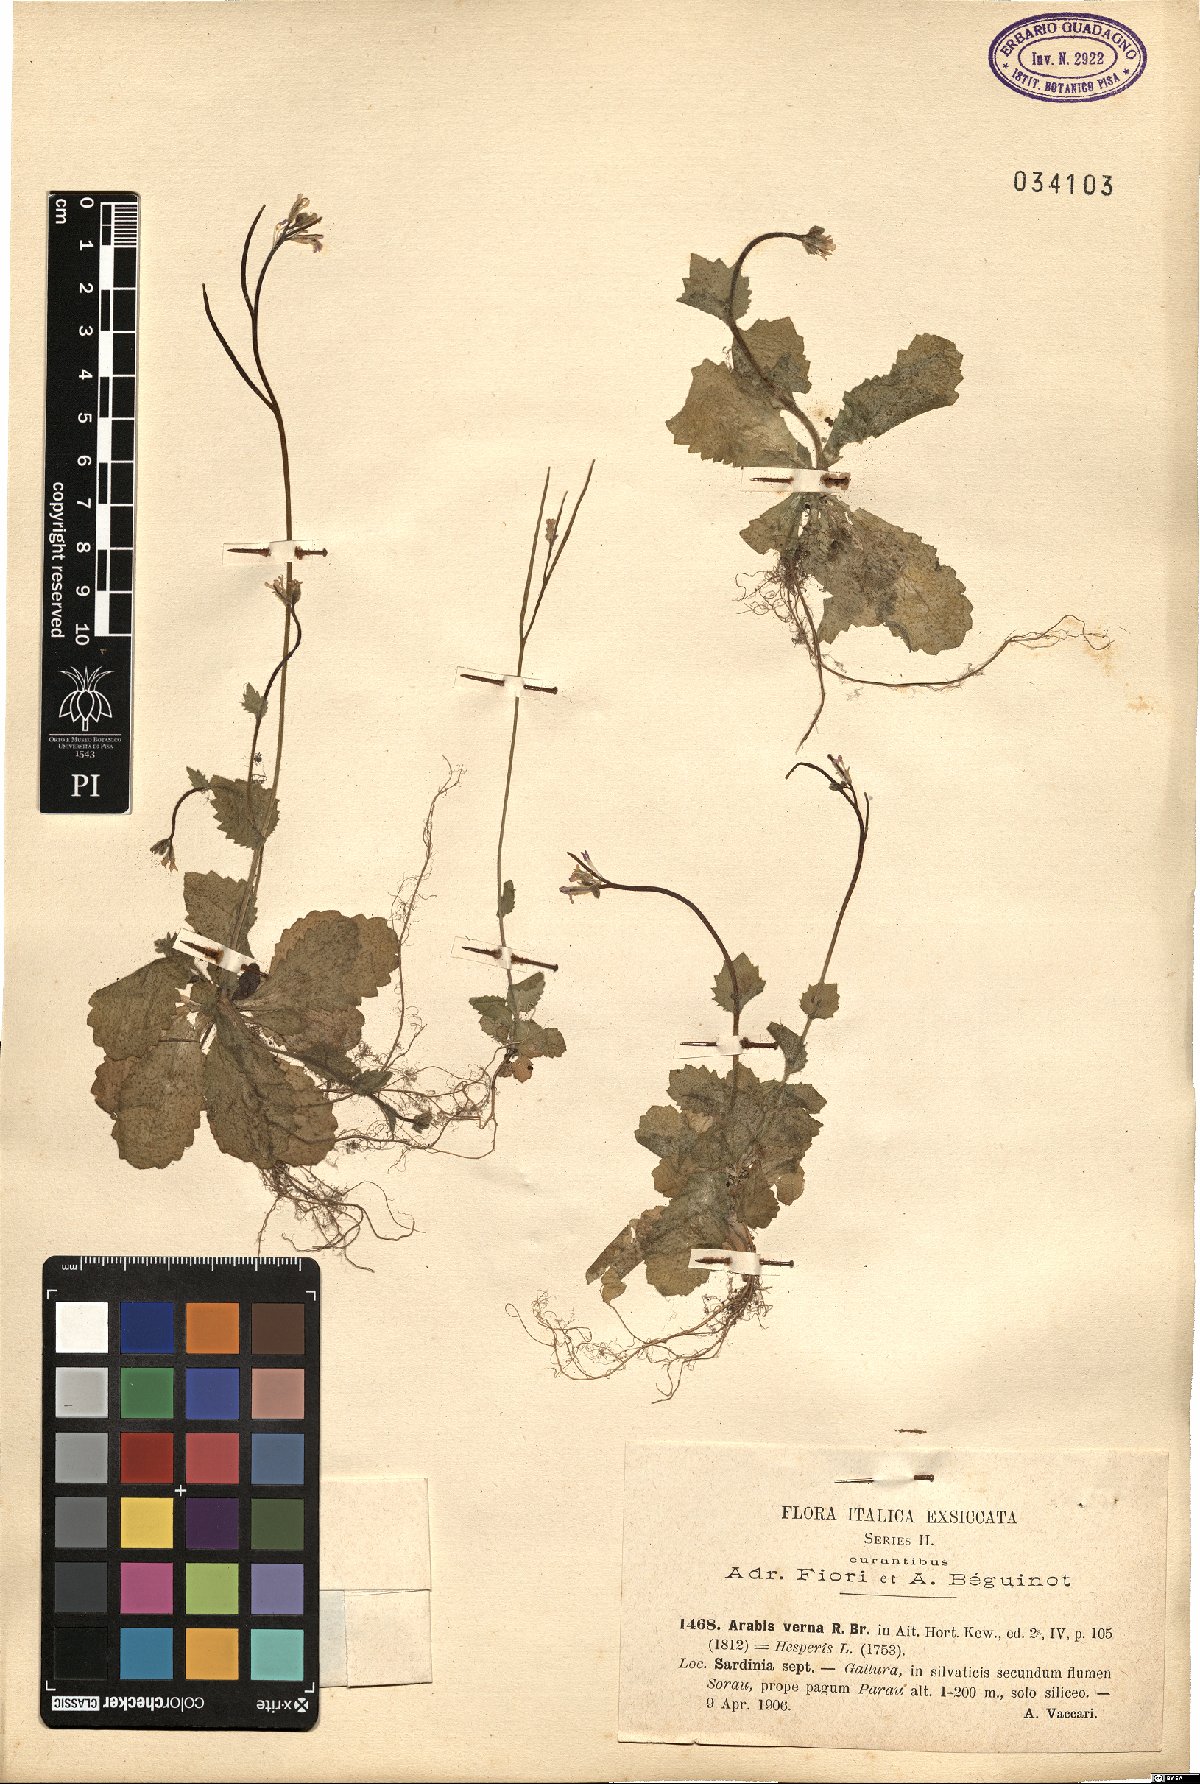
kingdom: Plantae
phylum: Tracheophyta
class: Magnoliopsida
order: Brassicales
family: Brassicaceae
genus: Arabis
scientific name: Arabis verna
